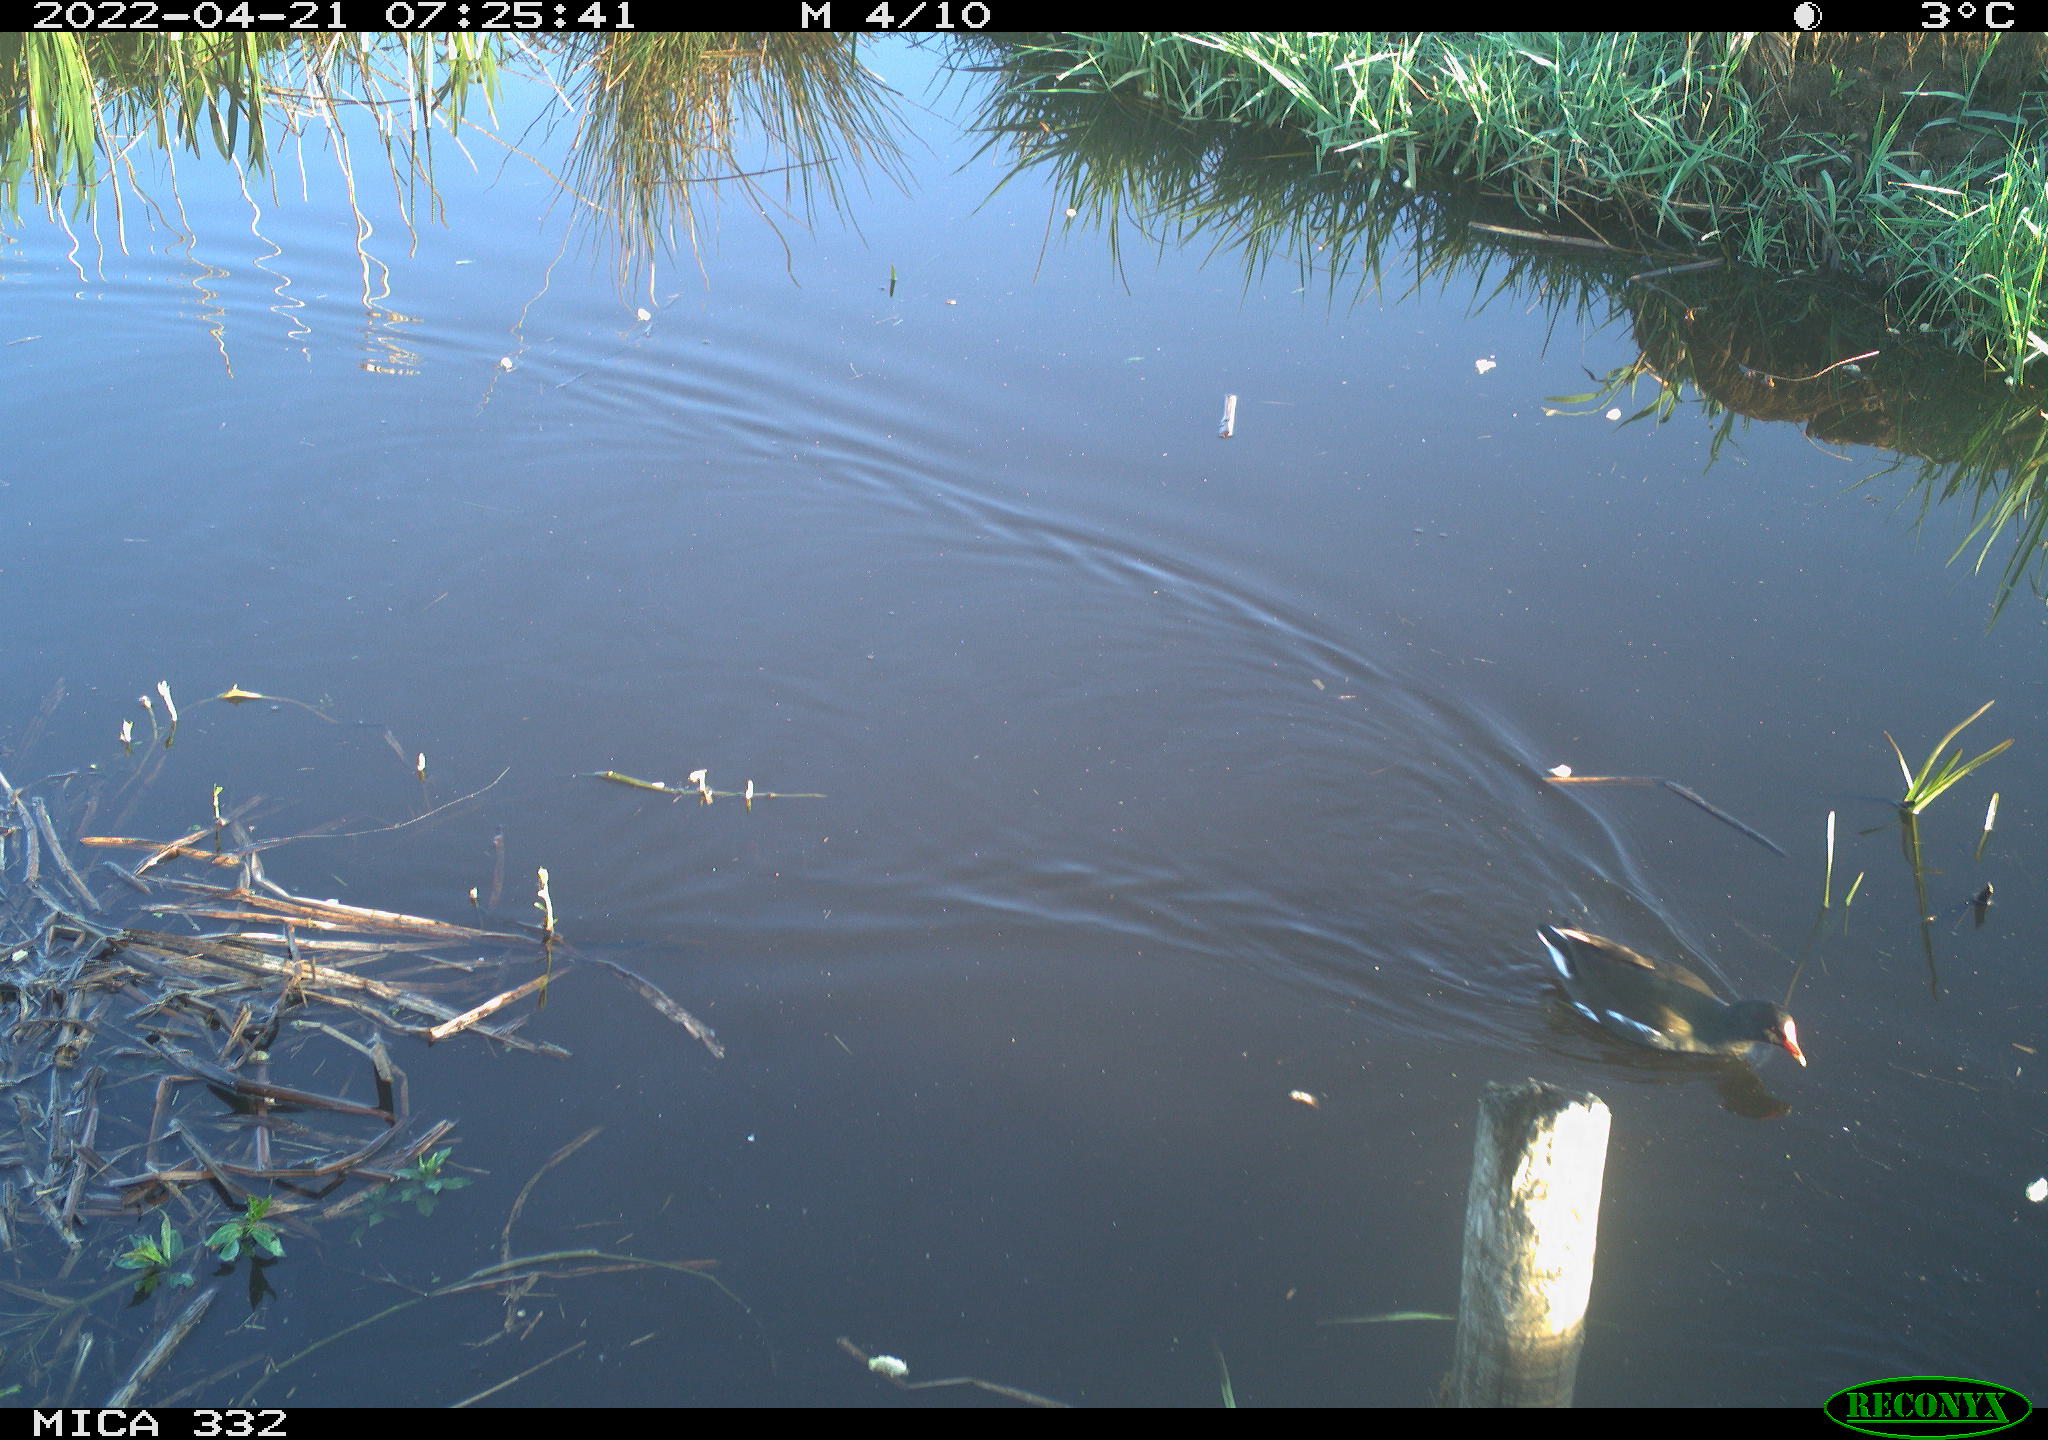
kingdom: Animalia
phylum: Chordata
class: Aves
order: Gruiformes
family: Rallidae
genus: Gallinula
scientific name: Gallinula chloropus
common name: Common moorhen
